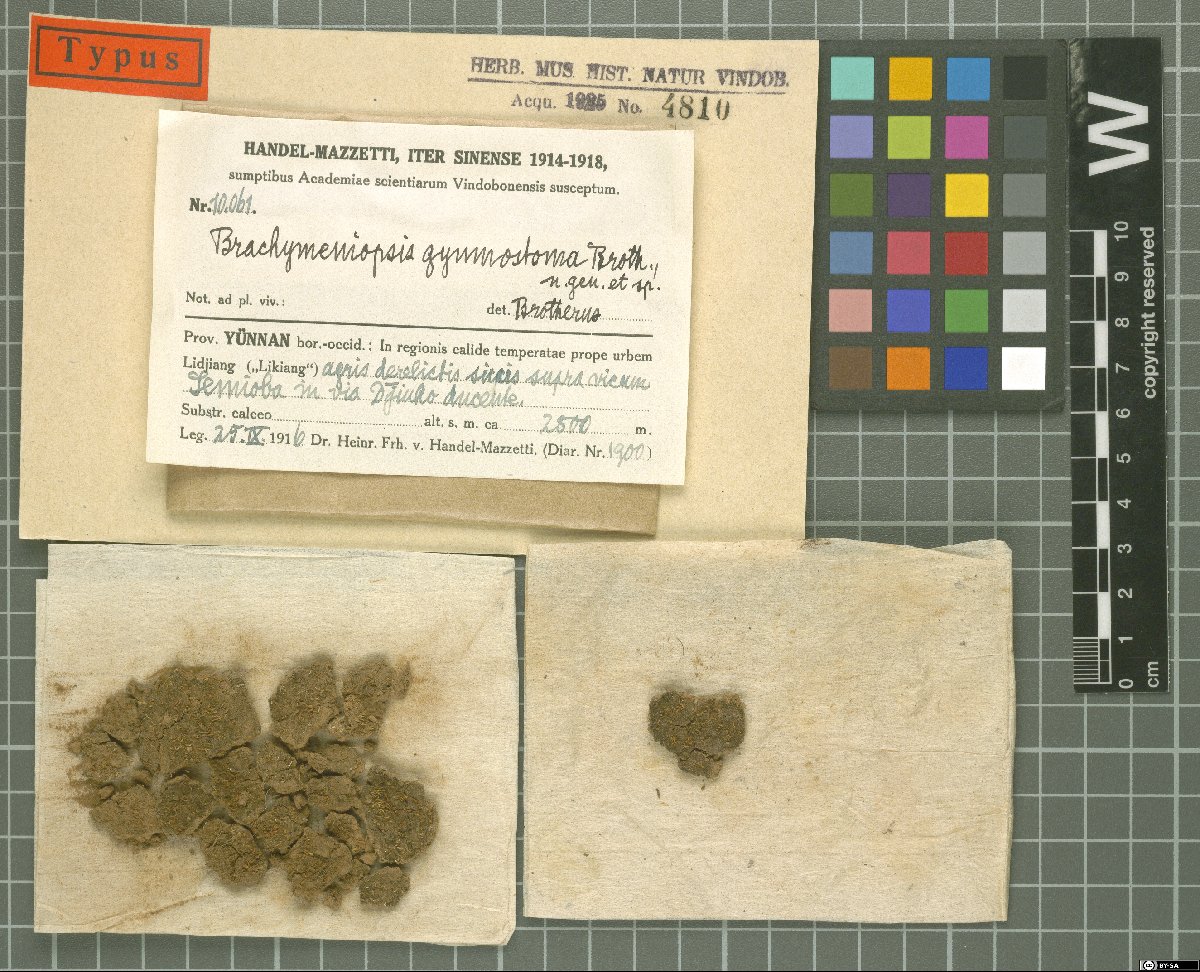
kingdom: Plantae
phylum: Bryophyta
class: Bryopsida
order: Funariales
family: Funariaceae
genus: Brachymeniopsis
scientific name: Brachymeniopsis gymnostoma
